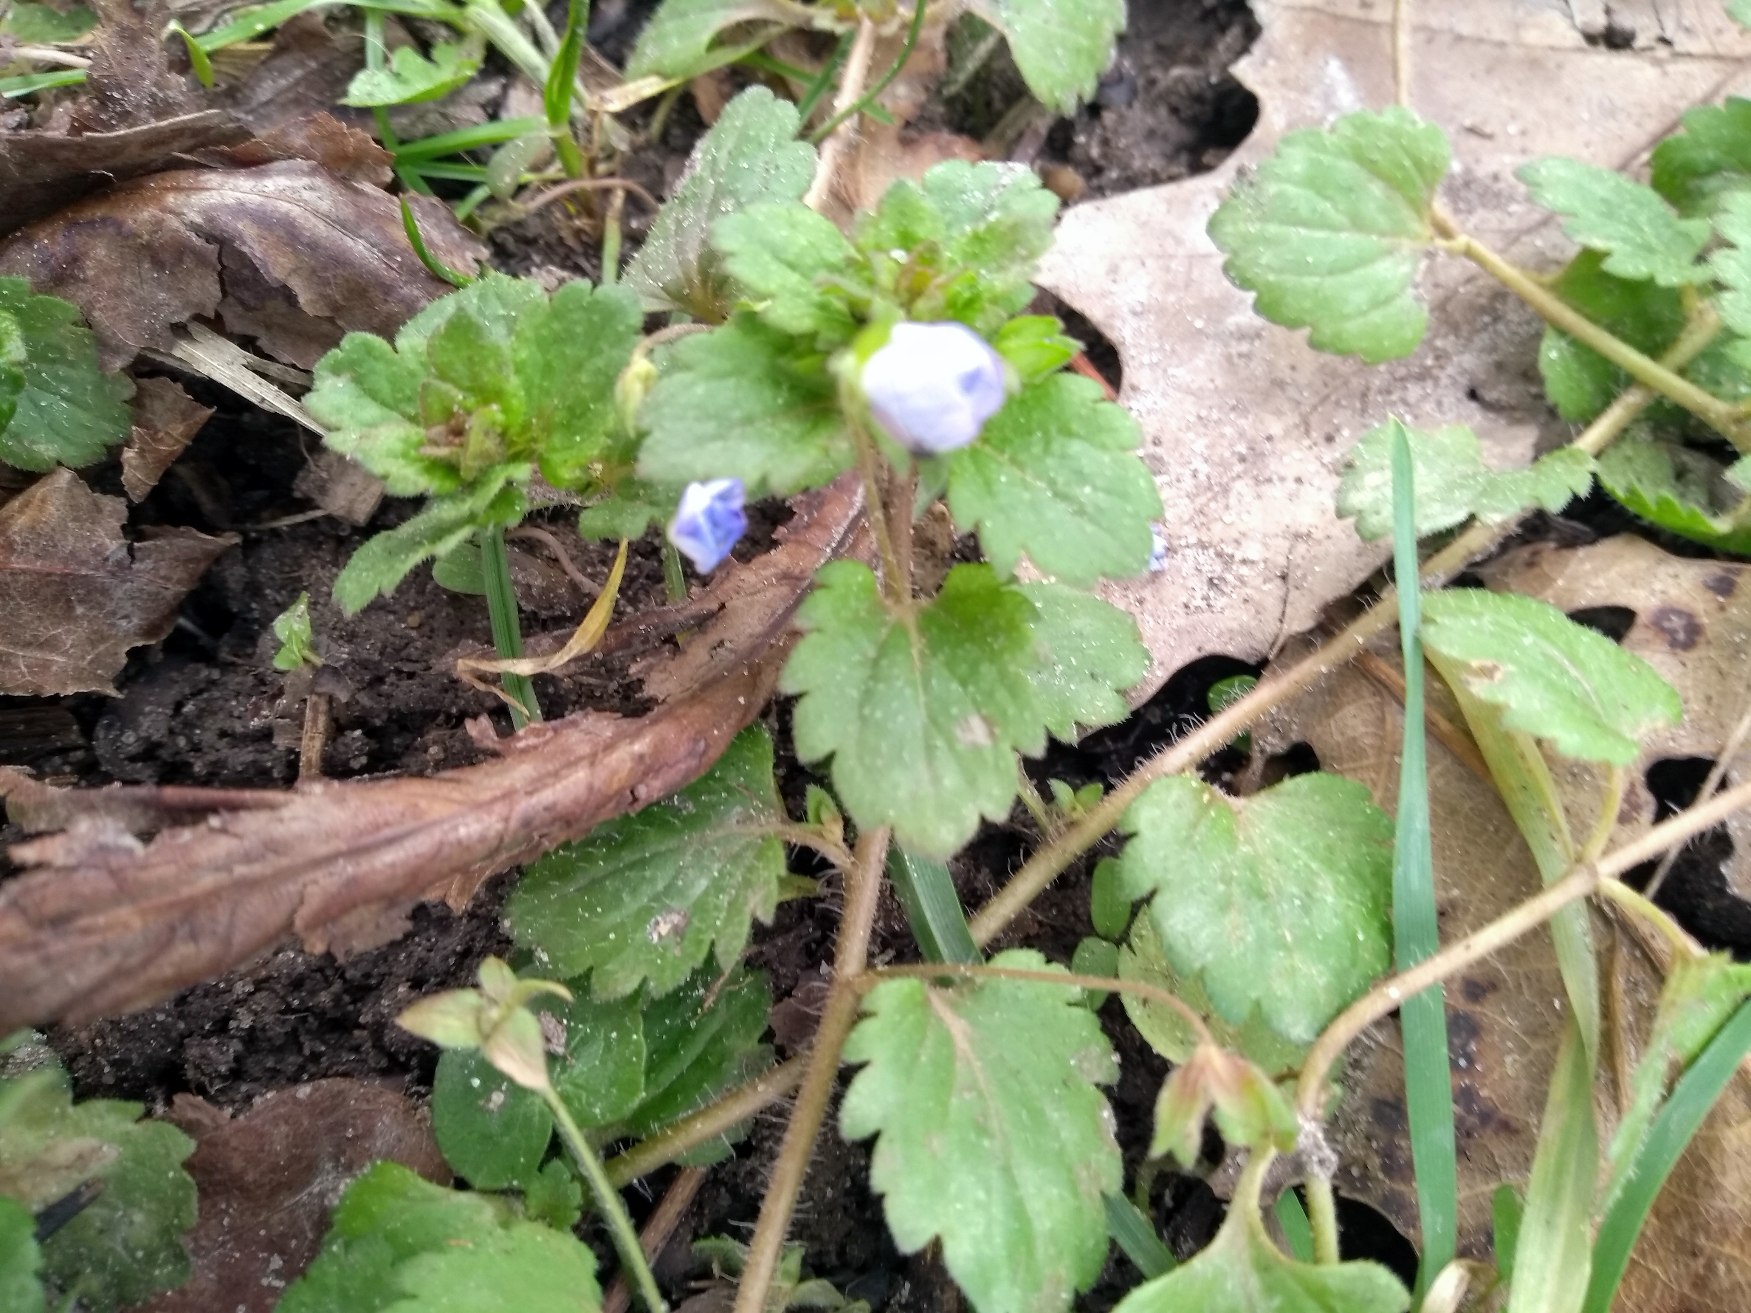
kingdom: Plantae
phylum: Tracheophyta
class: Magnoliopsida
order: Lamiales
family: Plantaginaceae
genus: Veronica
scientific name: Veronica persica
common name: Storkronet ærenpris
